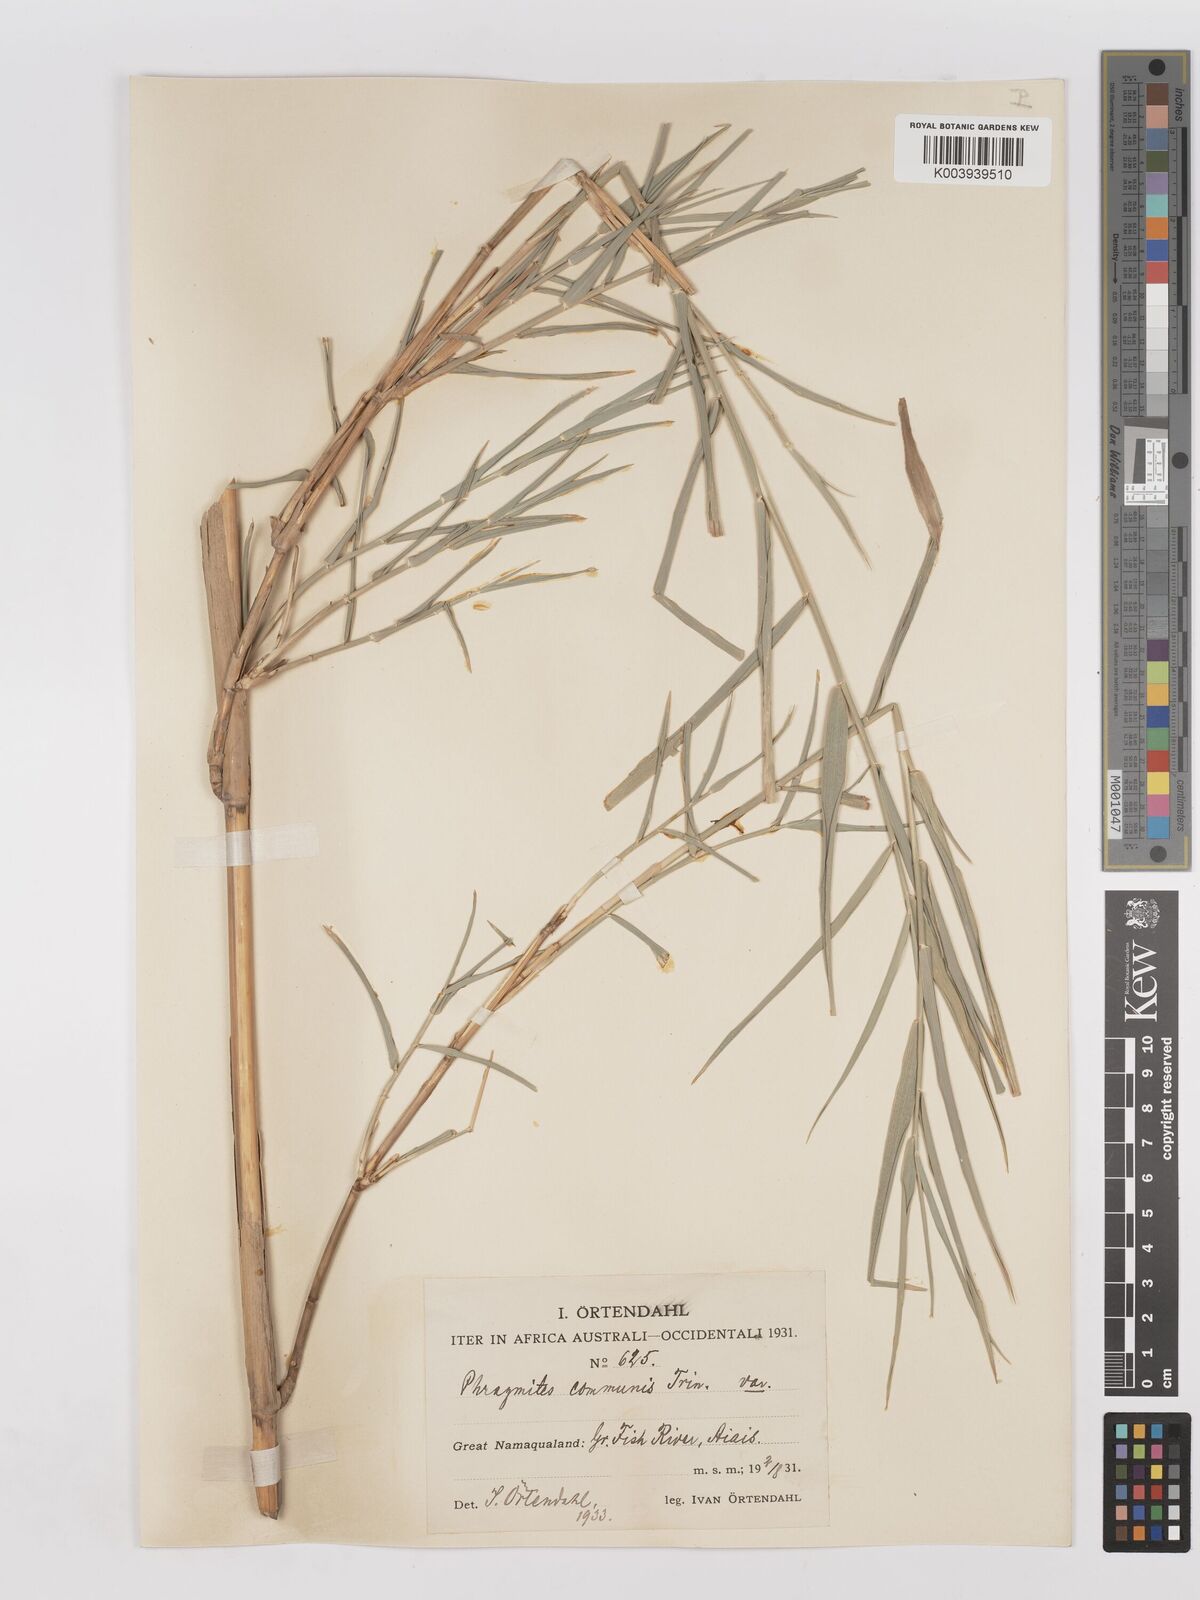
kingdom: Plantae
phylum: Tracheophyta
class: Liliopsida
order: Poales
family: Poaceae
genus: Phragmites
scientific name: Phragmites australis
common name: Common reed
